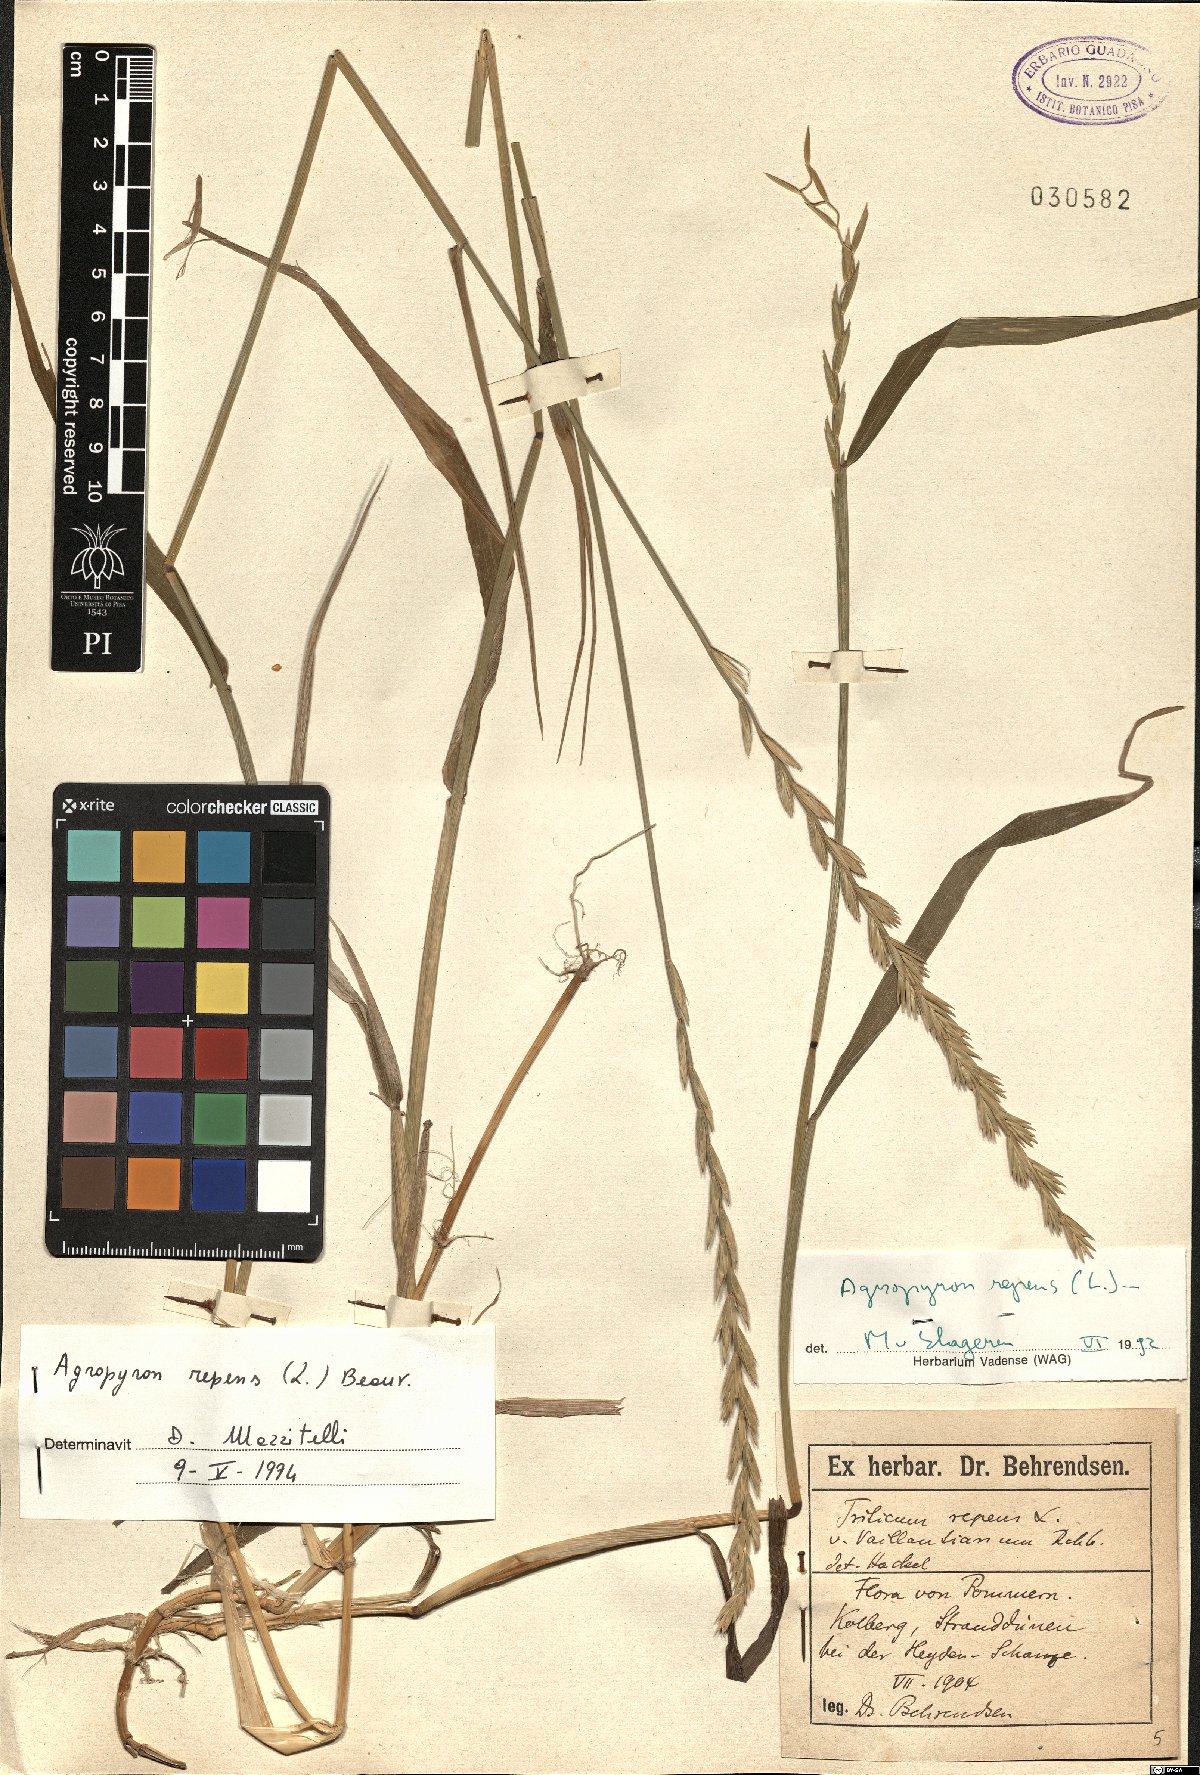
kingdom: Plantae
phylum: Tracheophyta
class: Liliopsida
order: Poales
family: Poaceae
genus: Elymus
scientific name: Elymus repens
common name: Quackgrass
